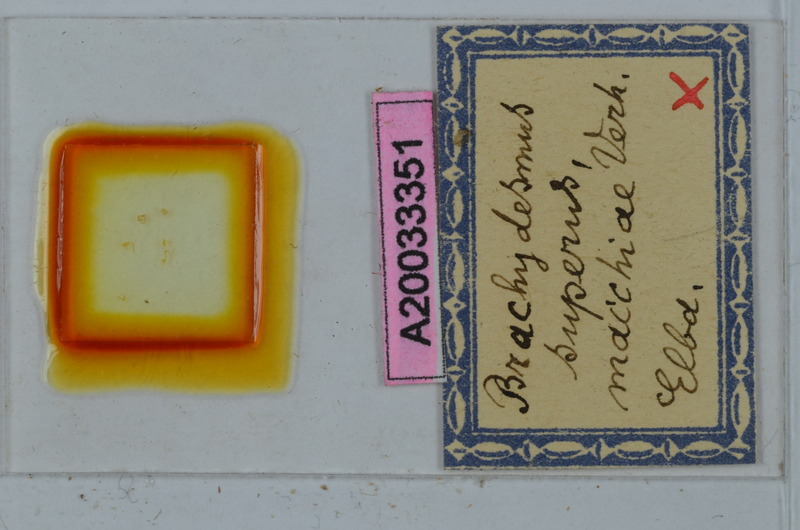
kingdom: Animalia
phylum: Arthropoda
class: Diplopoda
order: Polydesmida
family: Polydesmidae
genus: Brachydesmus
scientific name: Brachydesmus superus
